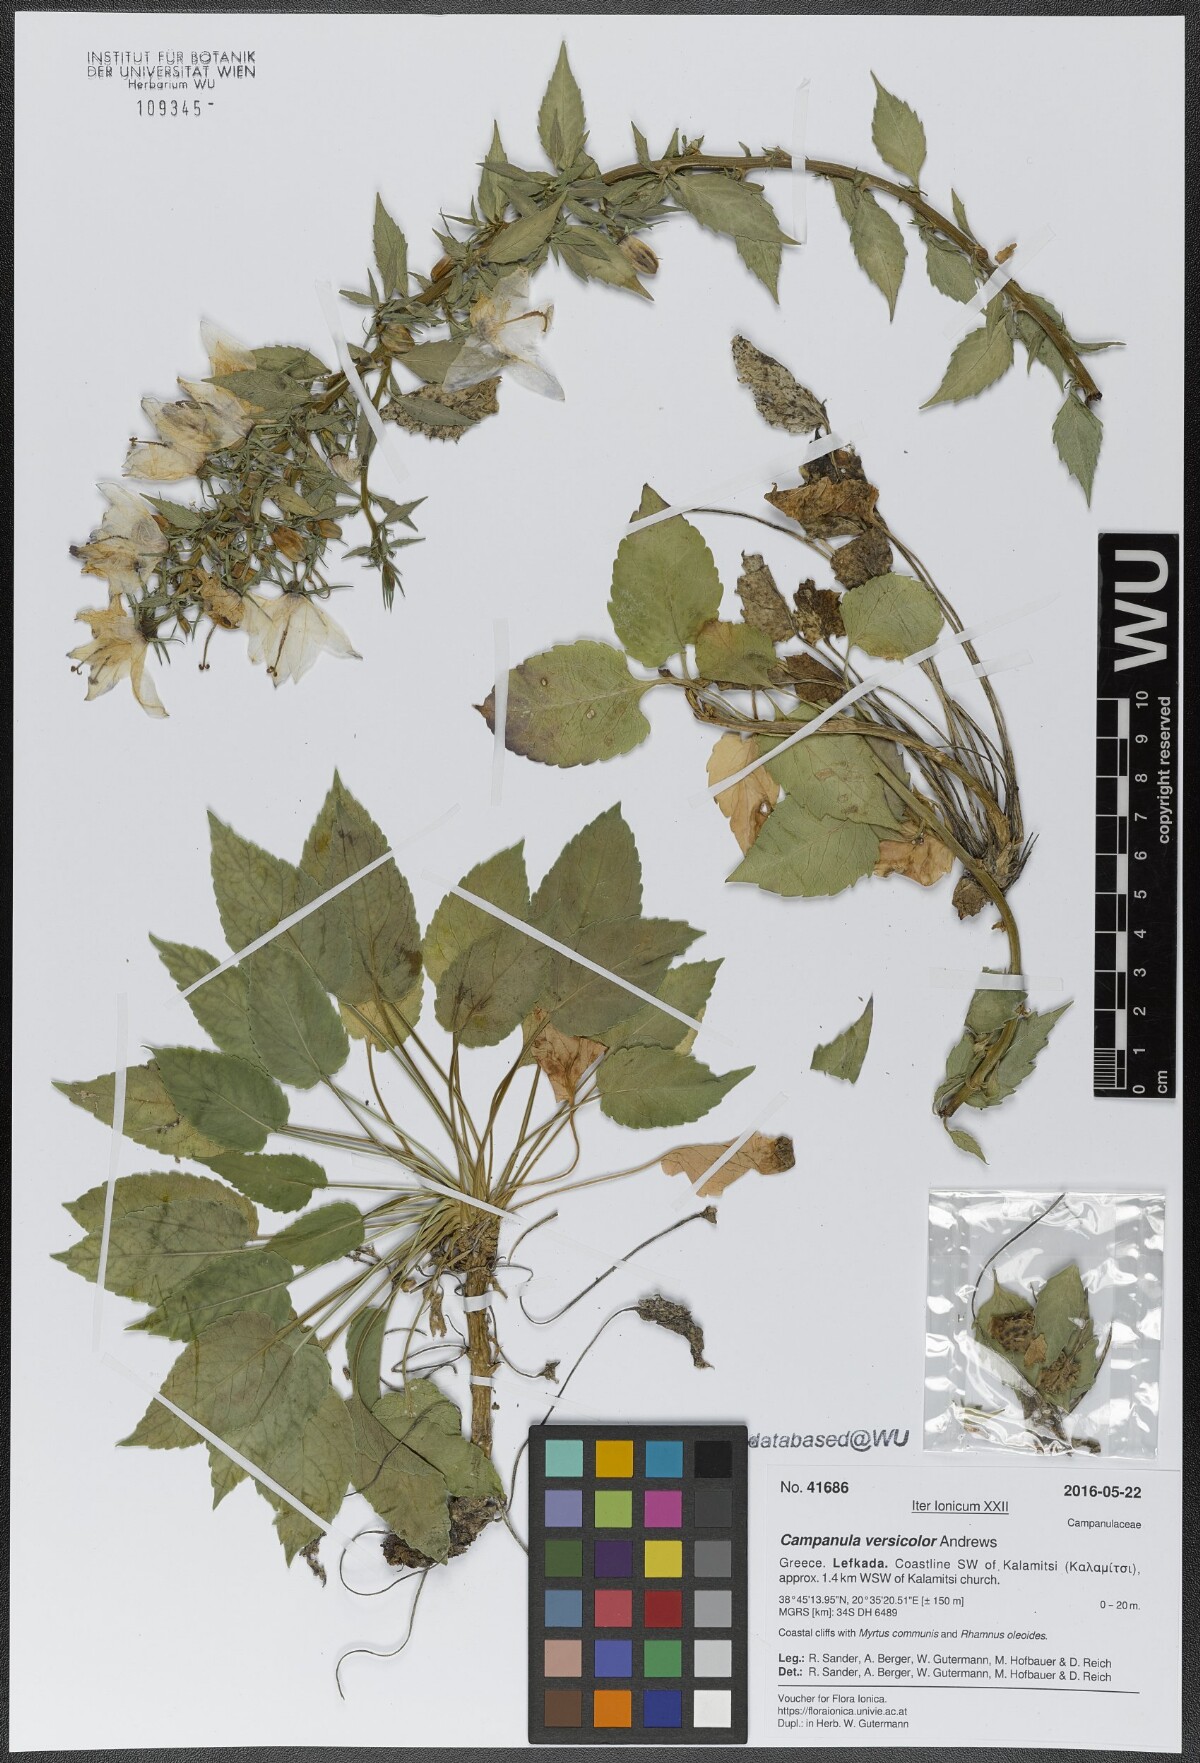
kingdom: Plantae
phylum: Tracheophyta
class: Magnoliopsida
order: Asterales
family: Campanulaceae
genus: Campanula
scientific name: Campanula versicolor
